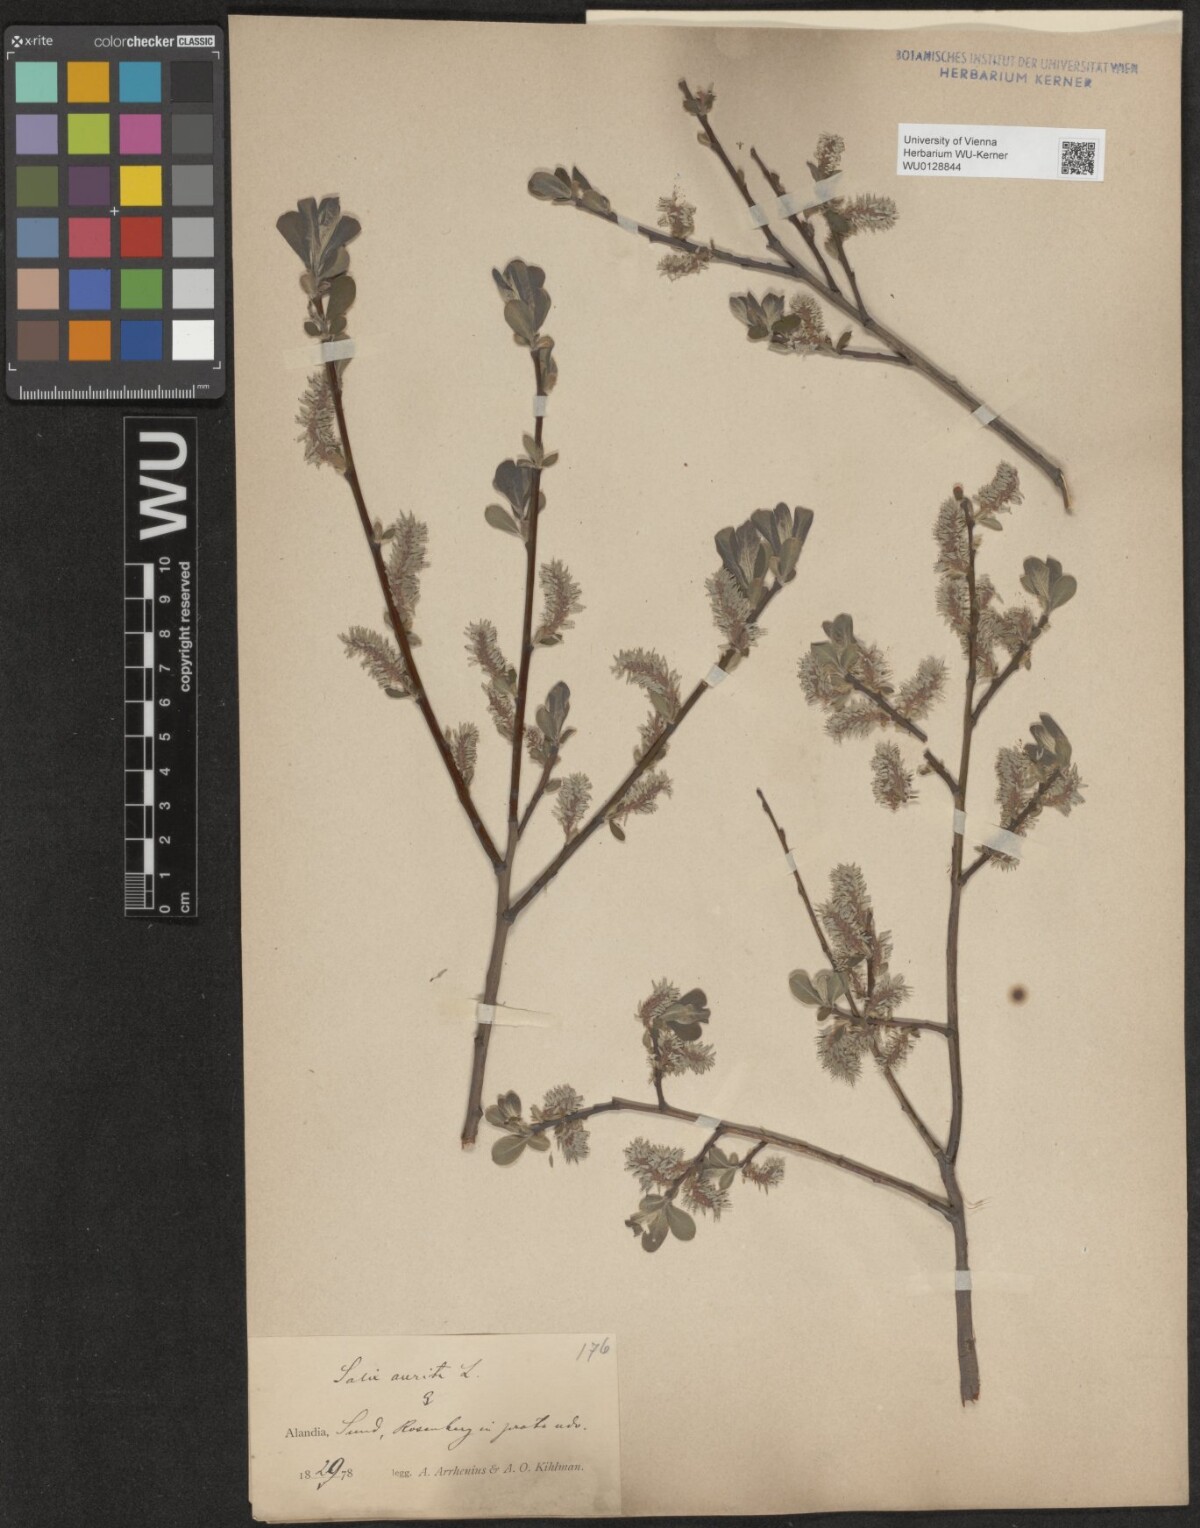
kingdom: Plantae
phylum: Tracheophyta
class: Magnoliopsida
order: Malpighiales
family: Salicaceae
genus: Salix
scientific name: Salix aurita
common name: Eared willow
